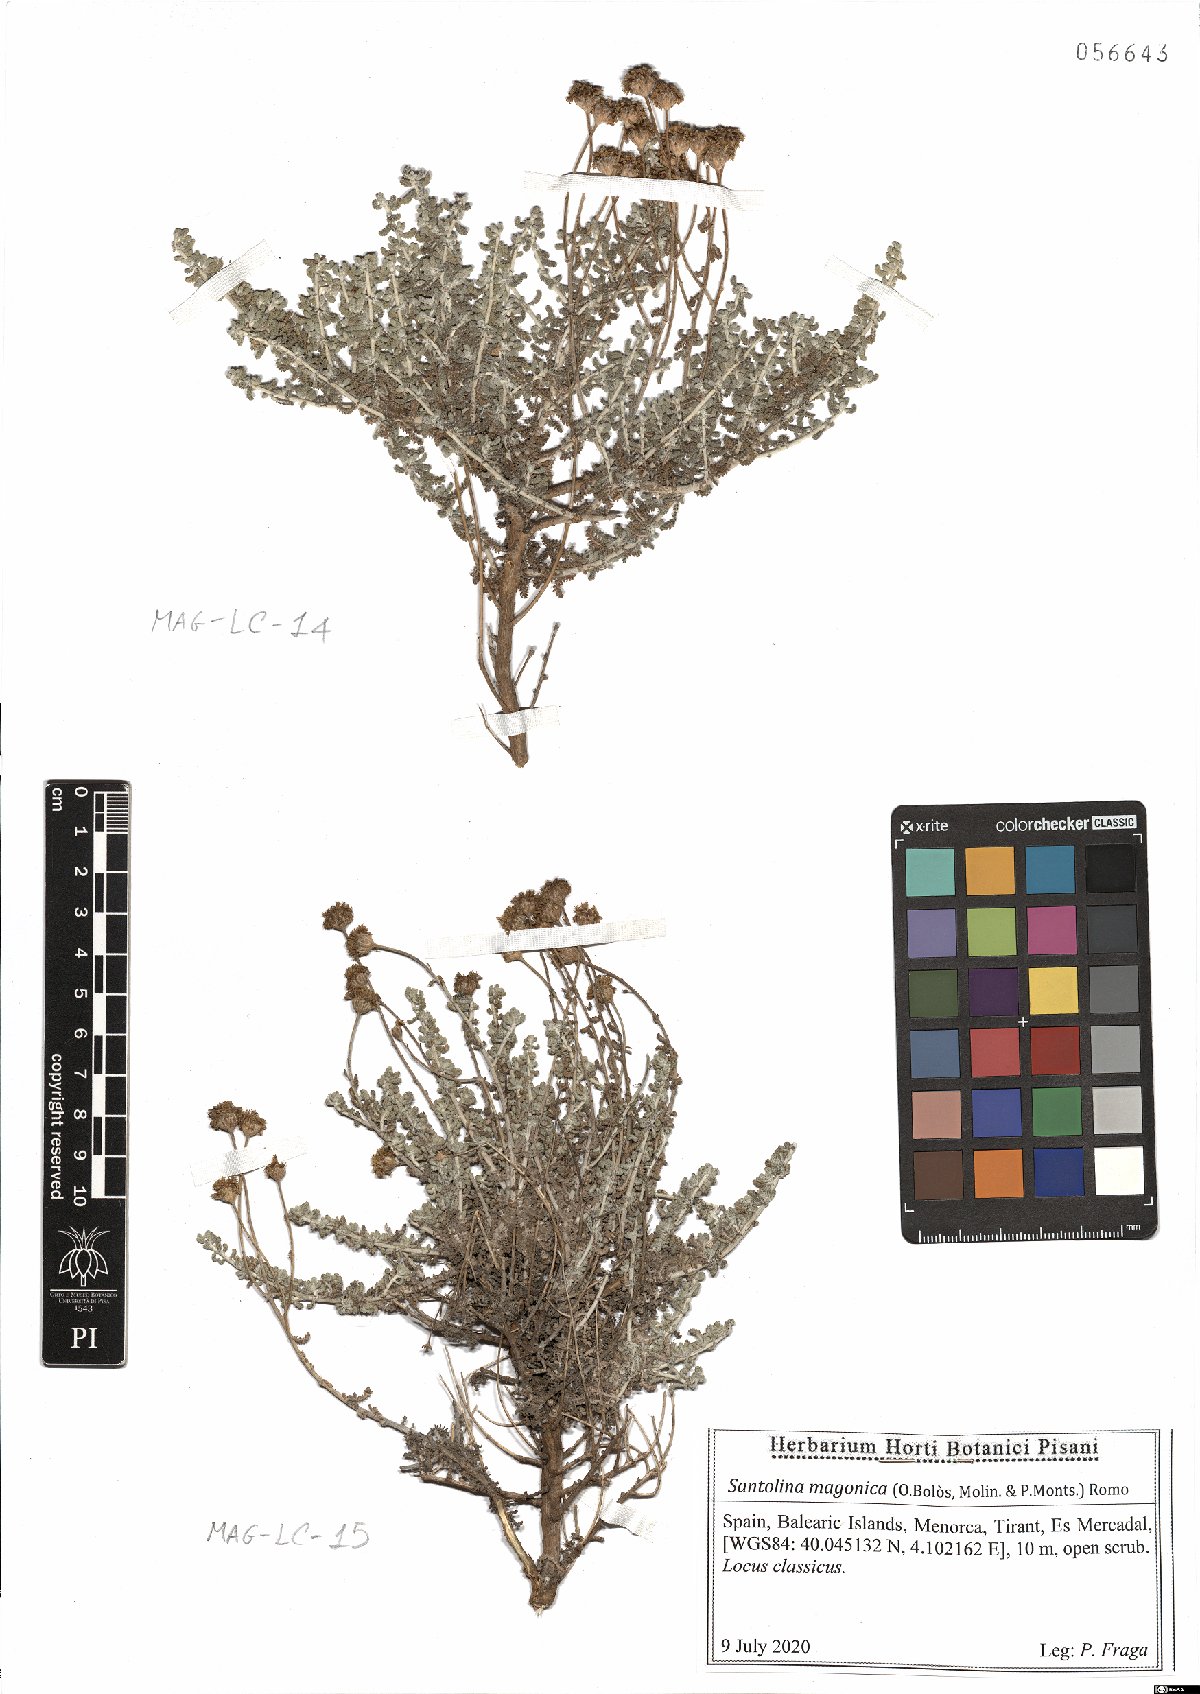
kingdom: Plantae
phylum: Tracheophyta
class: Magnoliopsida
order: Asterales
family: Asteraceae
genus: Santolina
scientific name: Santolina magonica
